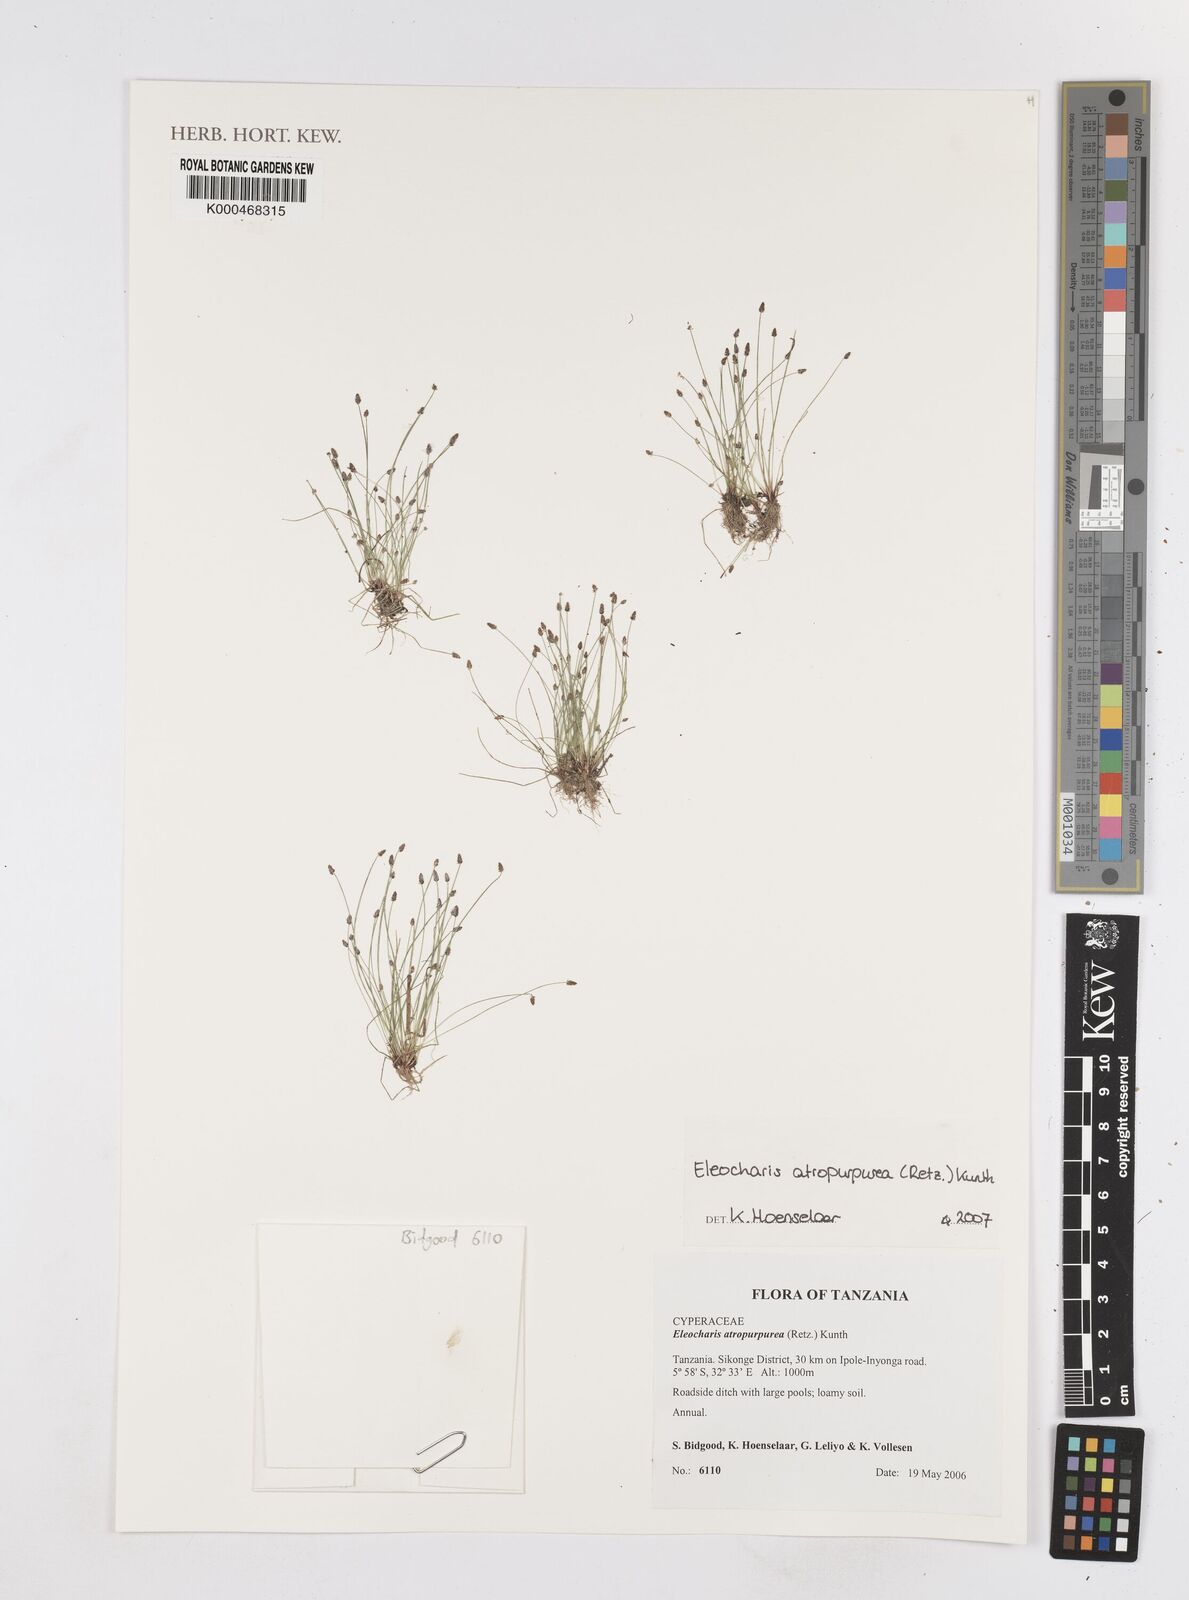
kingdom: Plantae
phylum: Tracheophyta
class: Liliopsida
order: Poales
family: Cyperaceae
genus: Eleocharis
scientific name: Eleocharis
